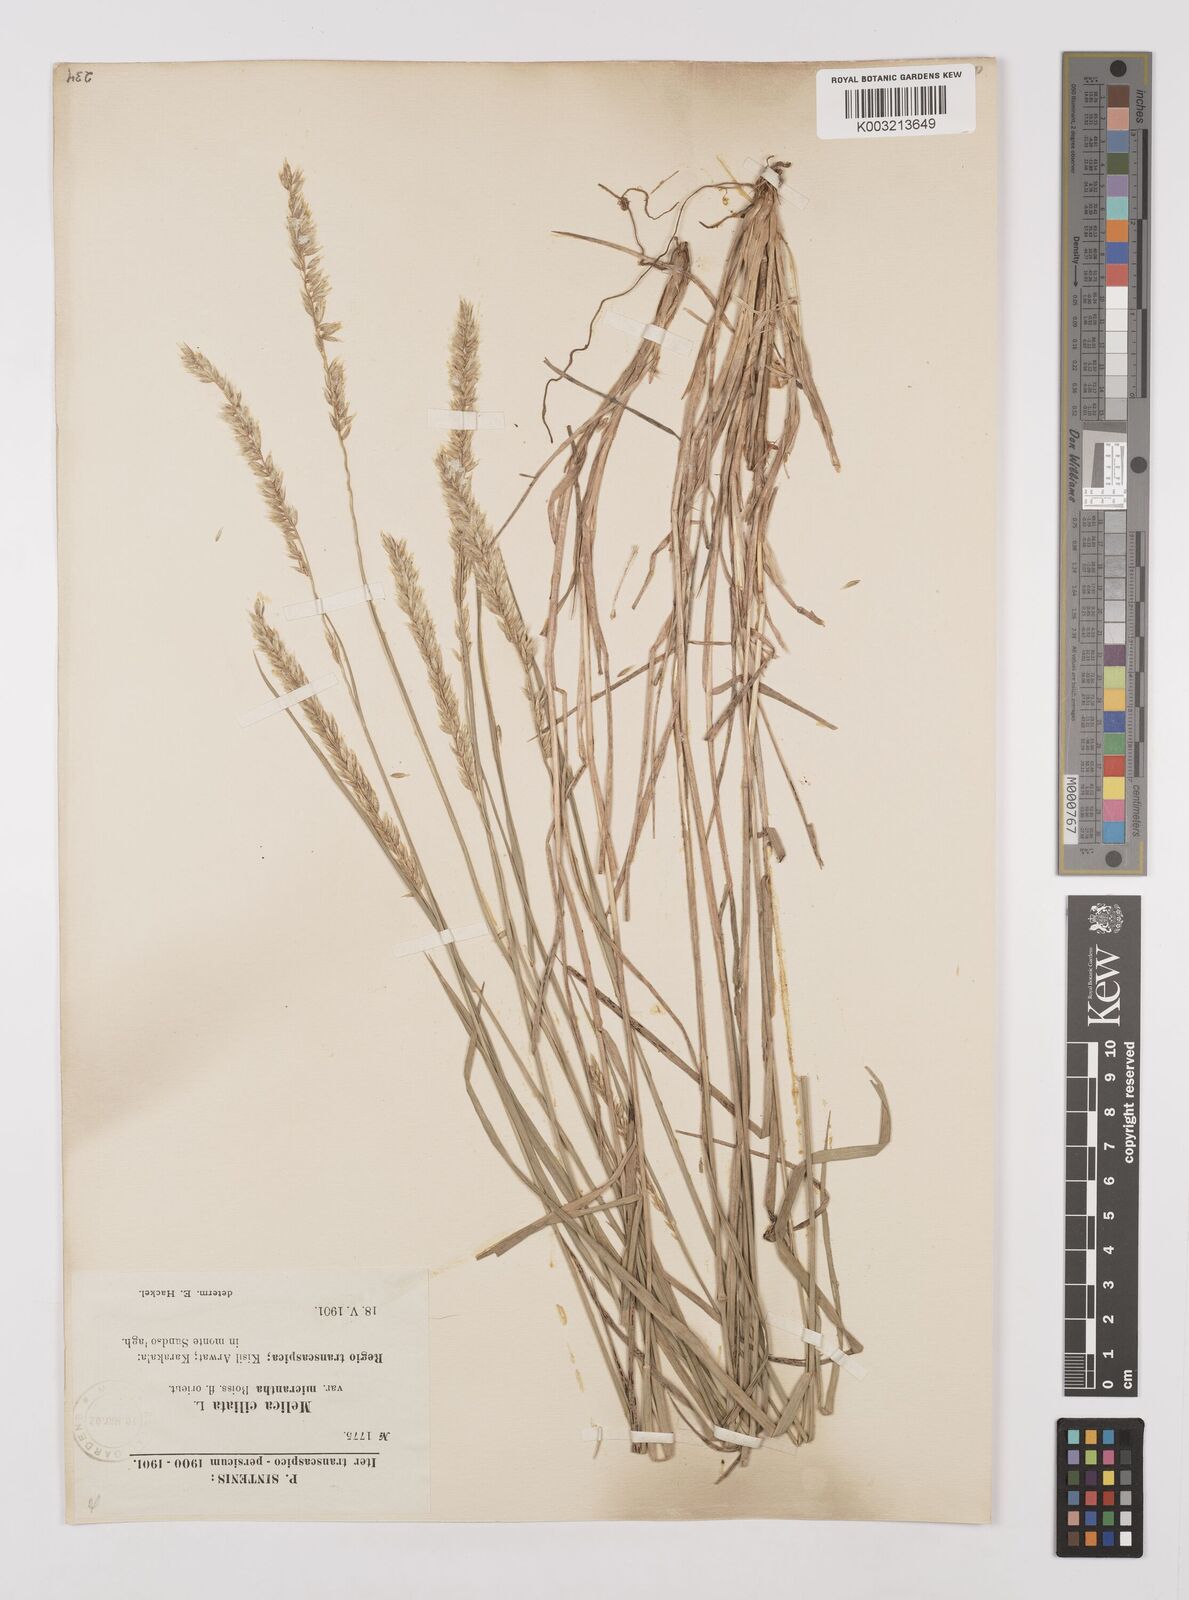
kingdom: Plantae
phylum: Tracheophyta
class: Liliopsida
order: Poales
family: Poaceae
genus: Melica
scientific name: Melica ciliata
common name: Hairy melicgrass
